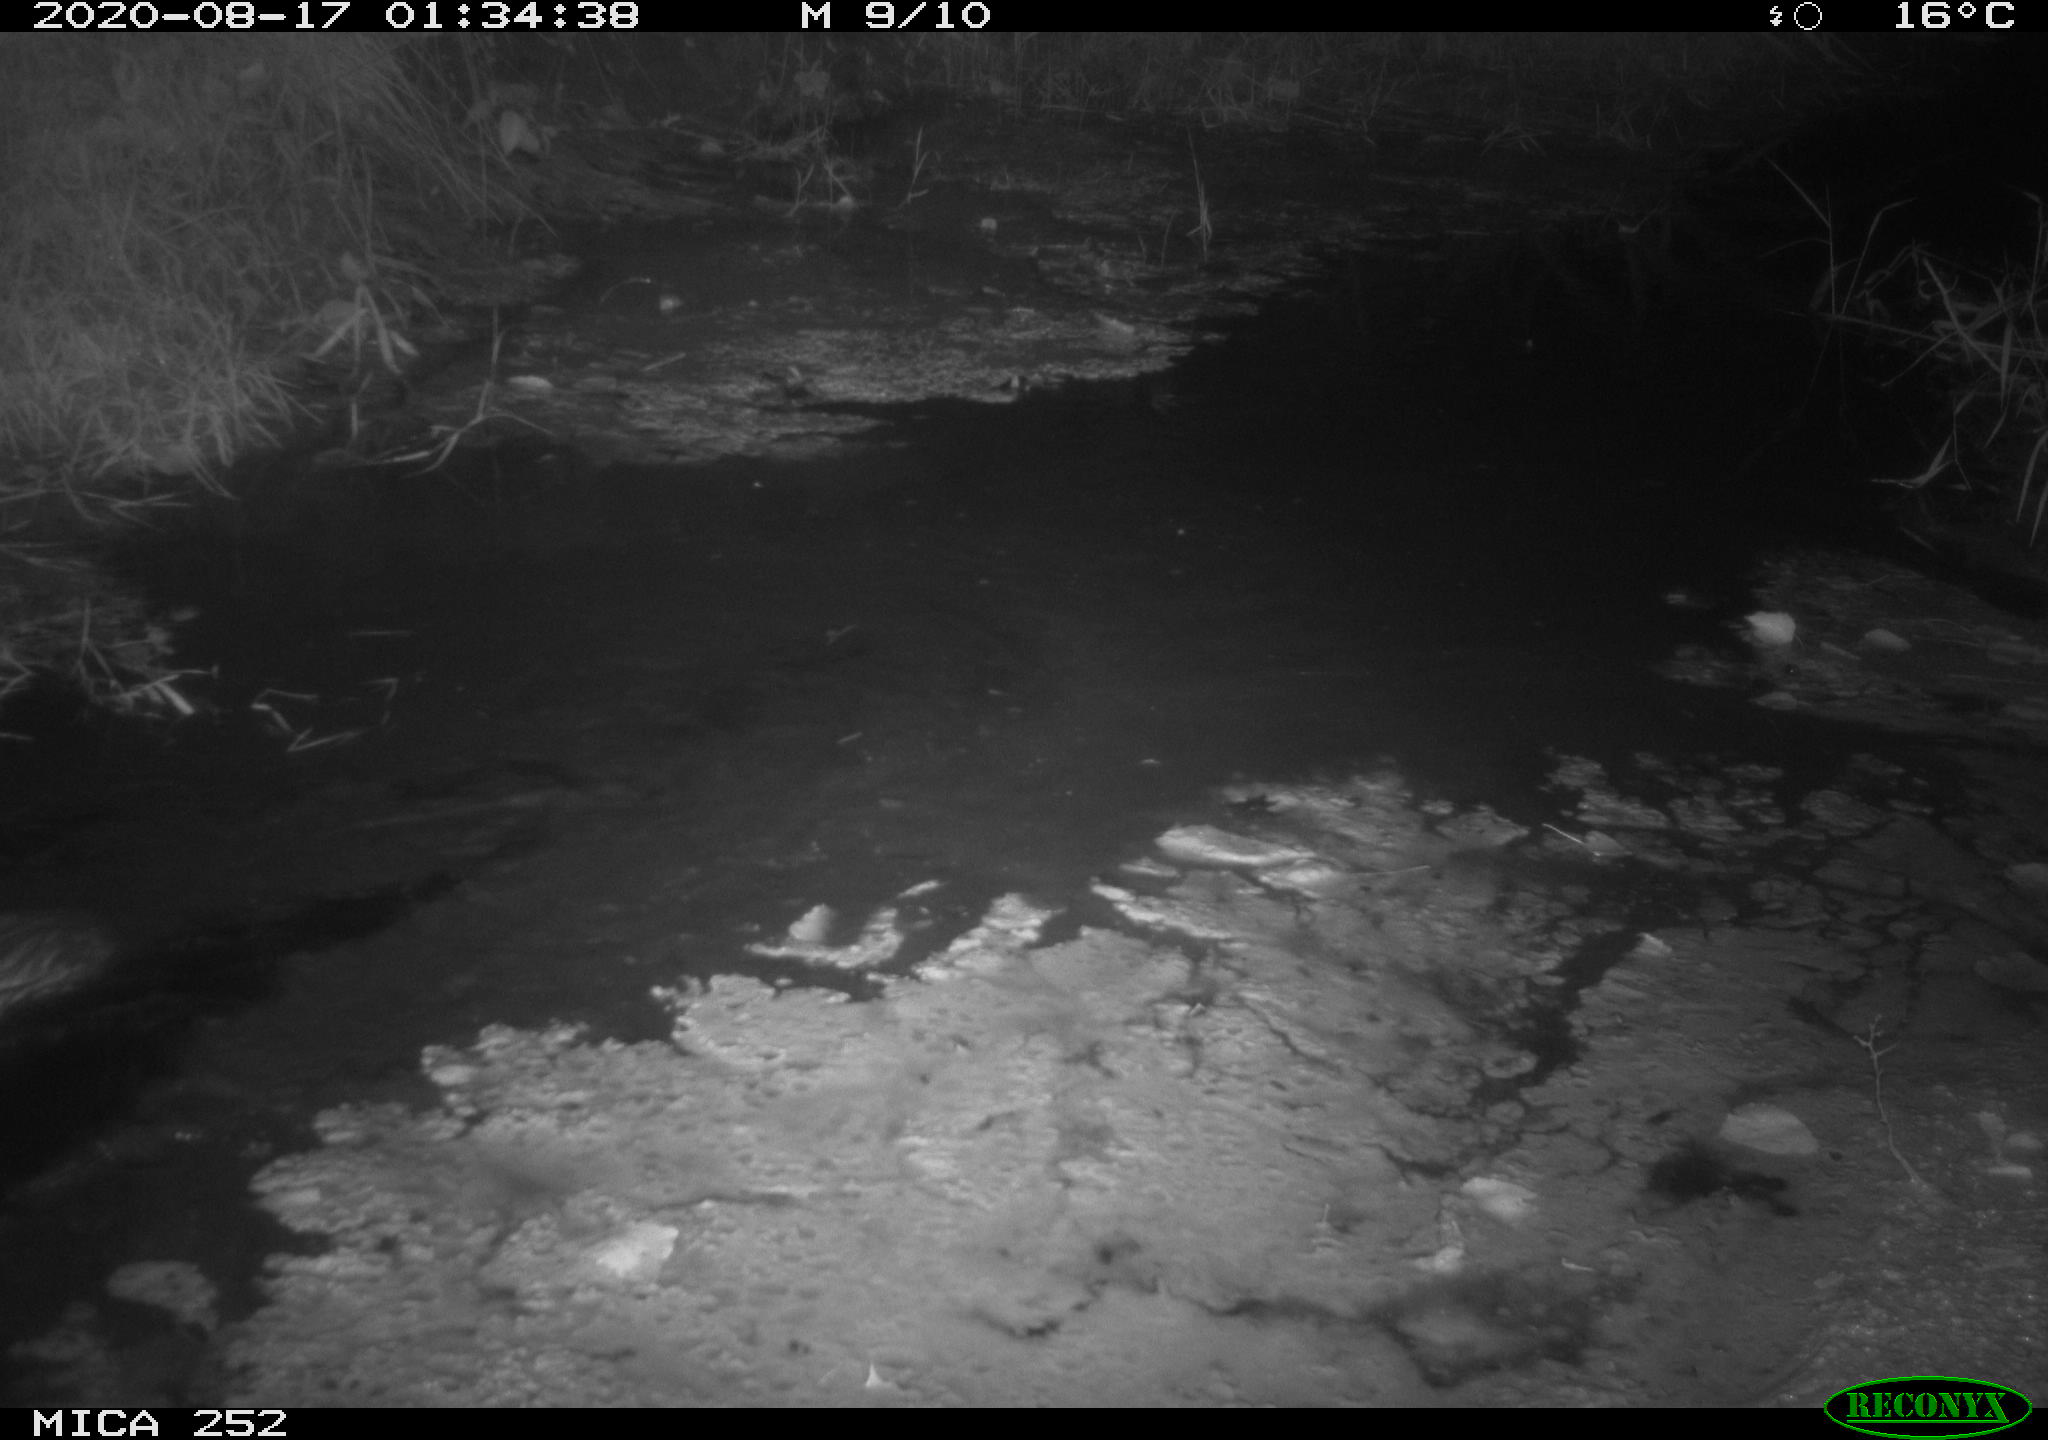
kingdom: Animalia
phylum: Chordata
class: Mammalia
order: Rodentia
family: Castoridae
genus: Castor
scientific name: Castor fiber
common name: Eurasian beaver
